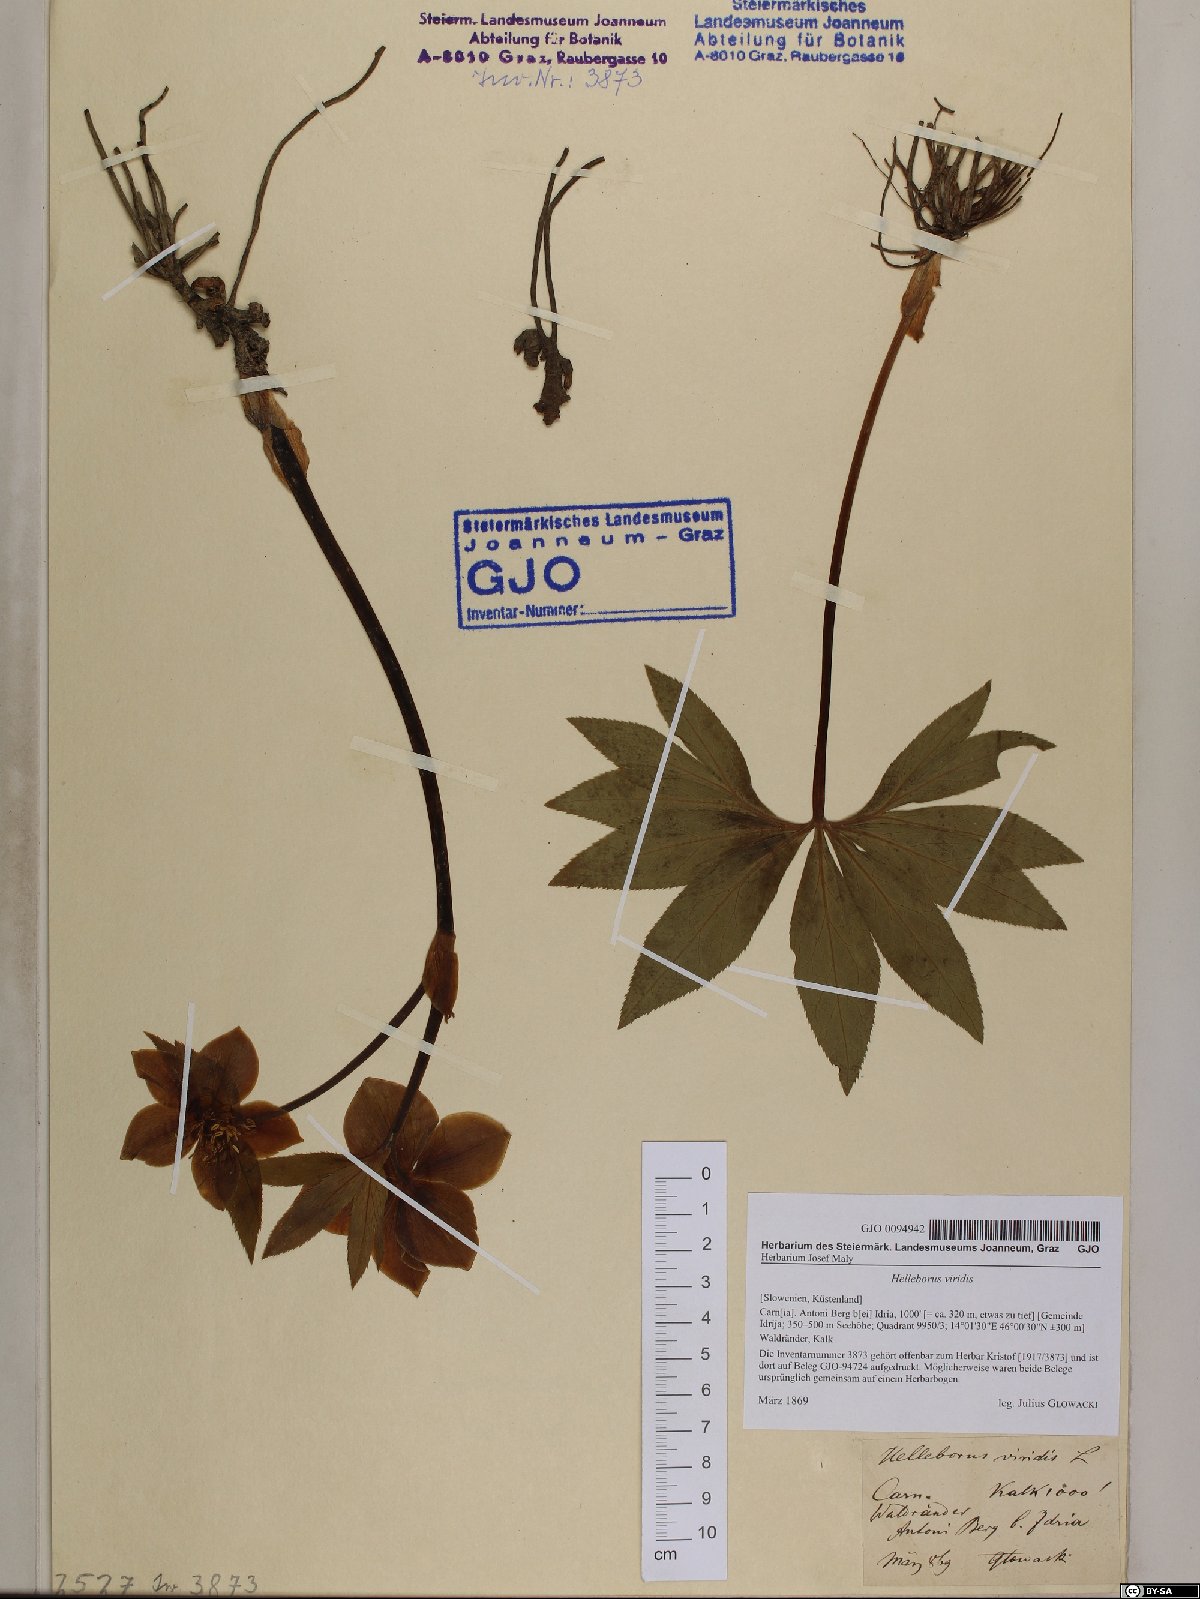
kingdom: Plantae
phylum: Tracheophyta
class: Magnoliopsida
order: Ranunculales
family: Ranunculaceae
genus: Helleborus
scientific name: Helleborus viridis
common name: Green hellebore
